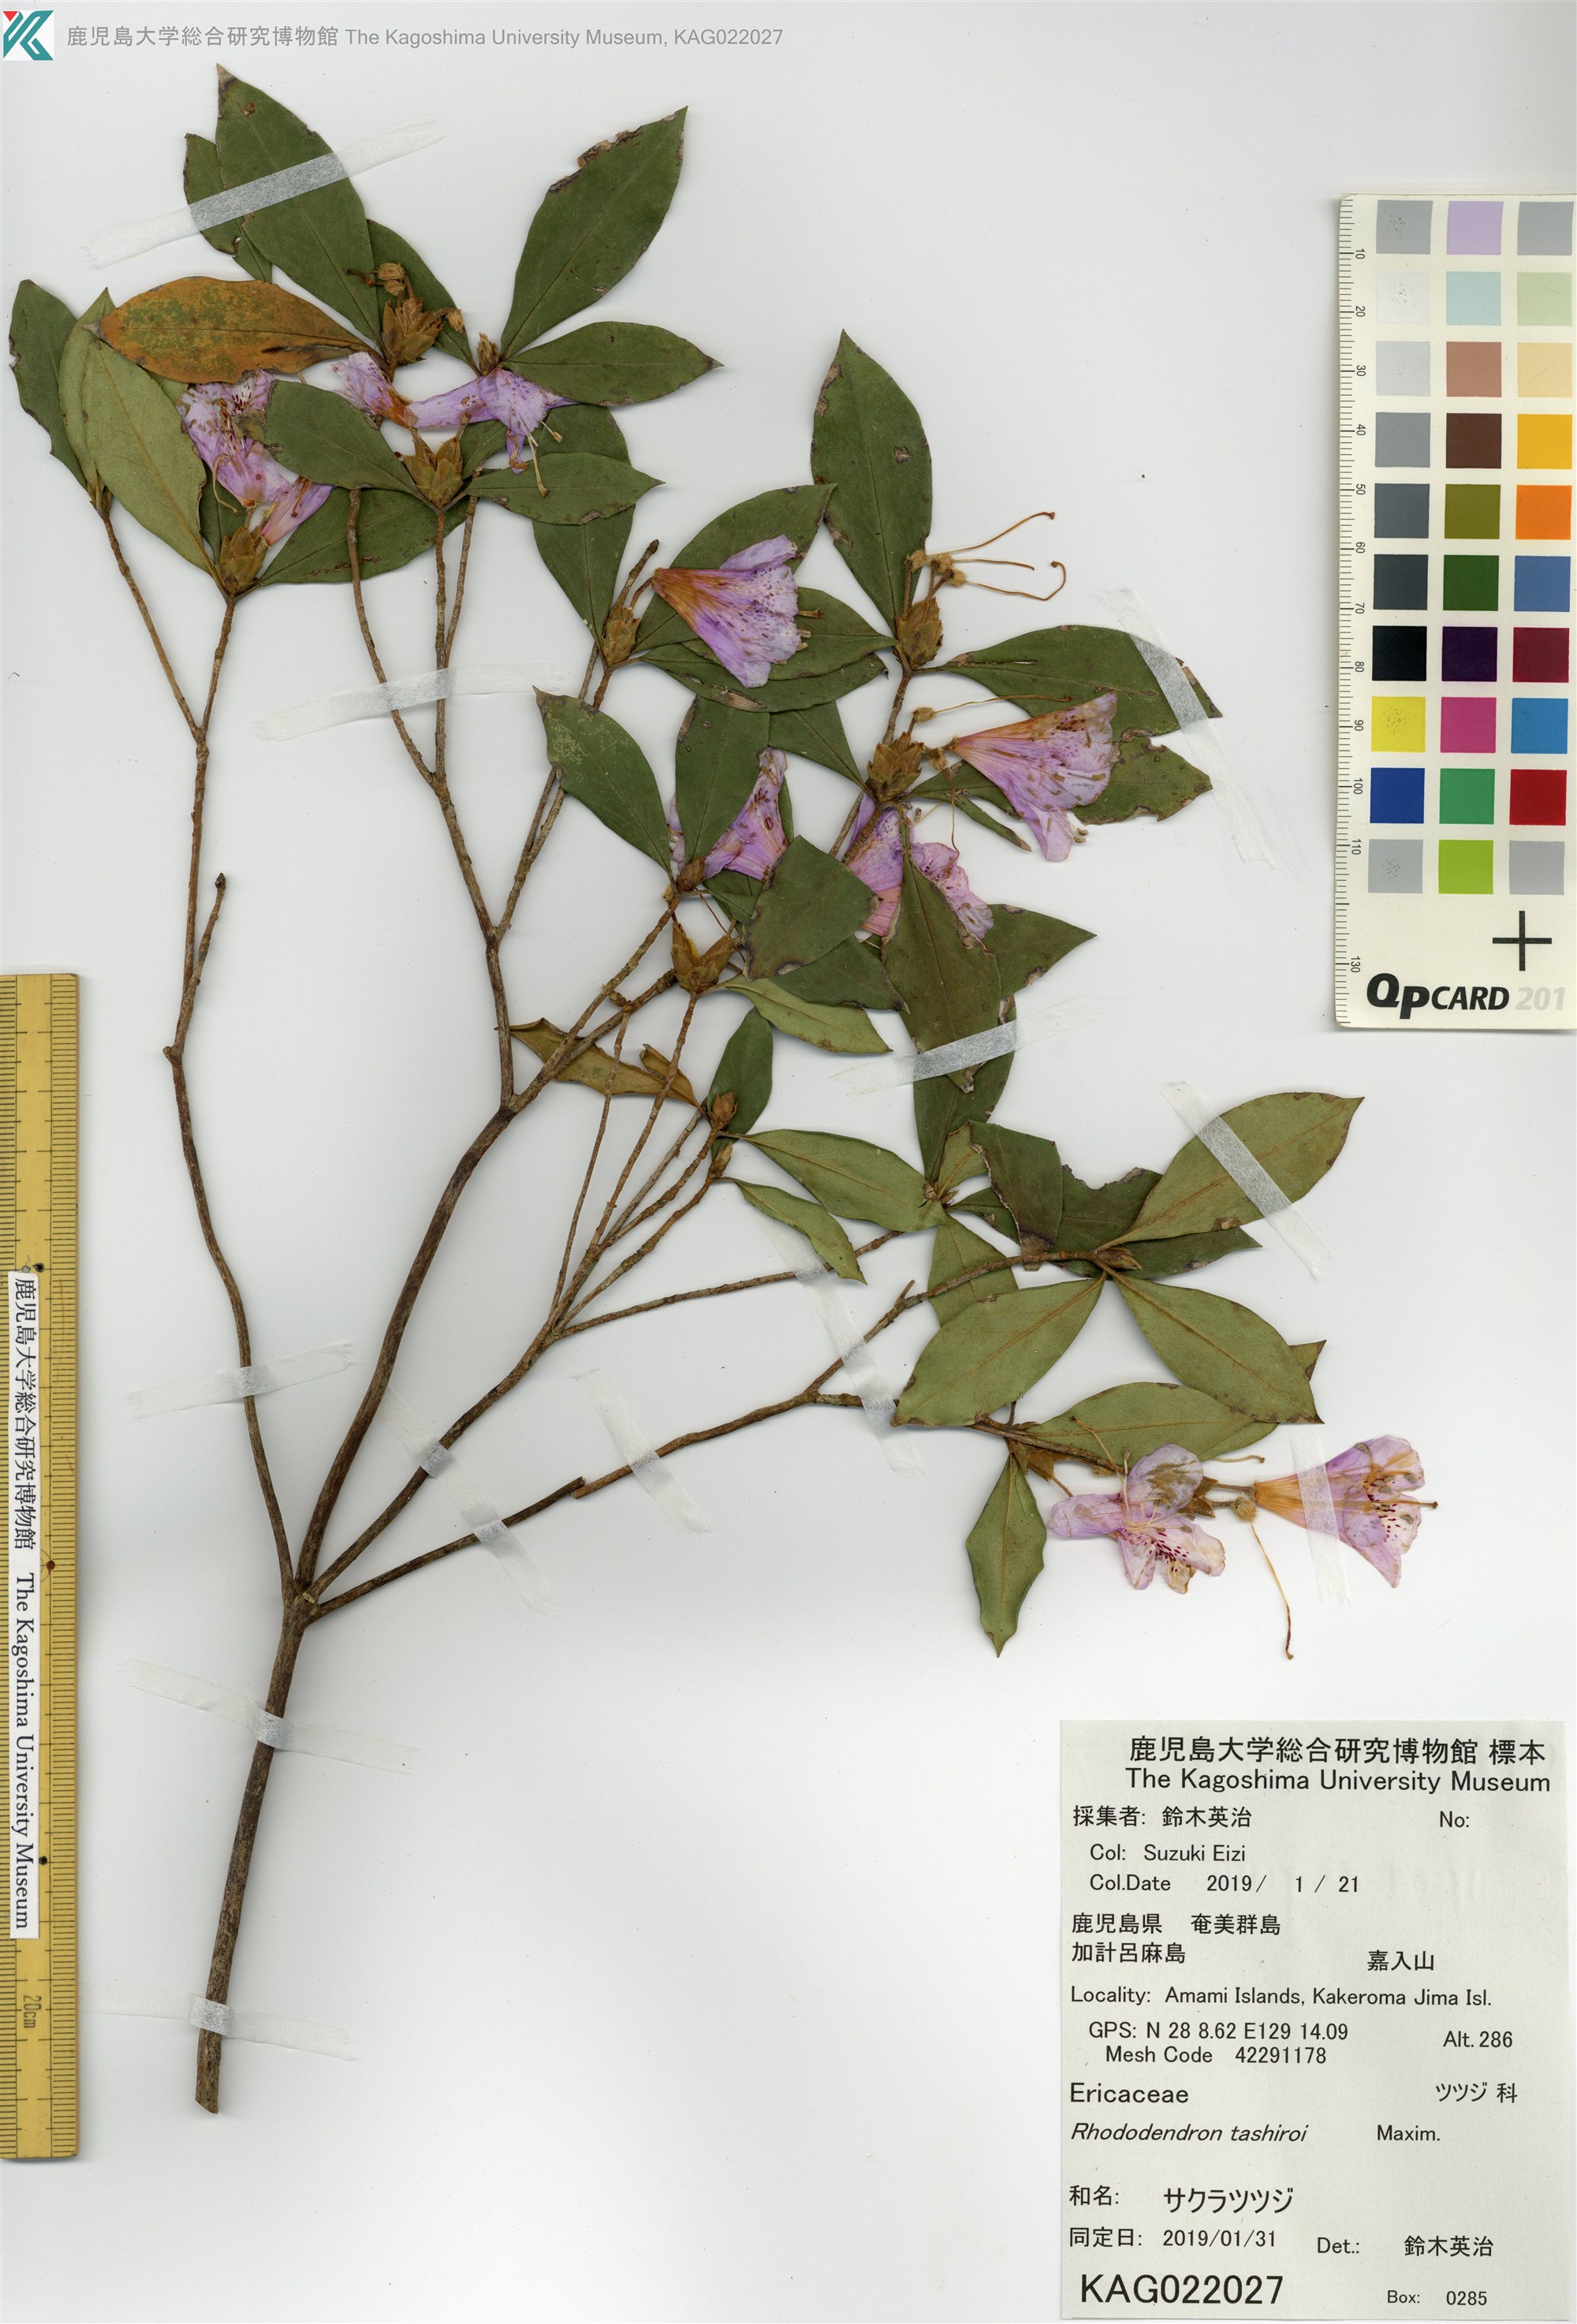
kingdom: Plantae
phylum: Tracheophyta
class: Magnoliopsida
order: Ericales
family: Ericaceae
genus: Rhododendron
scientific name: Rhododendron tashiroi
